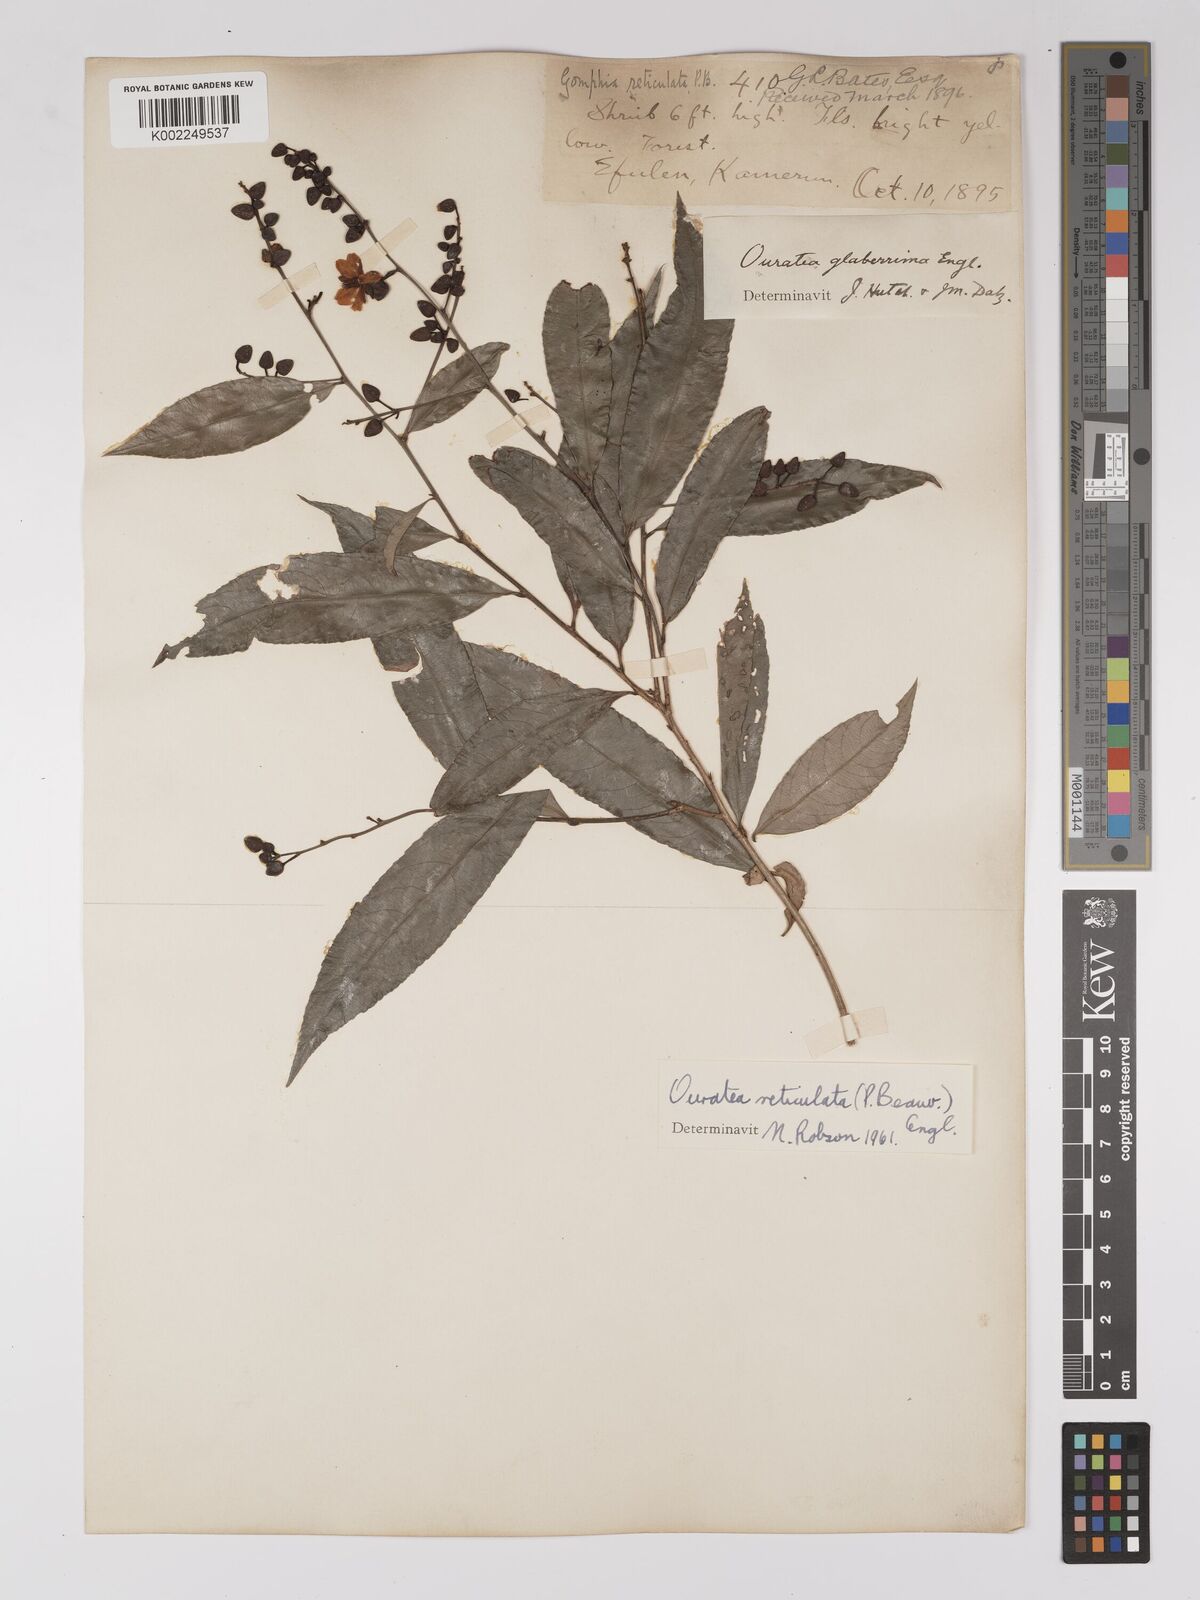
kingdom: Plantae
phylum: Tracheophyta
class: Magnoliopsida
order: Malpighiales
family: Ochnaceae
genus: Campylospermum
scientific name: Campylospermum reticulatum
